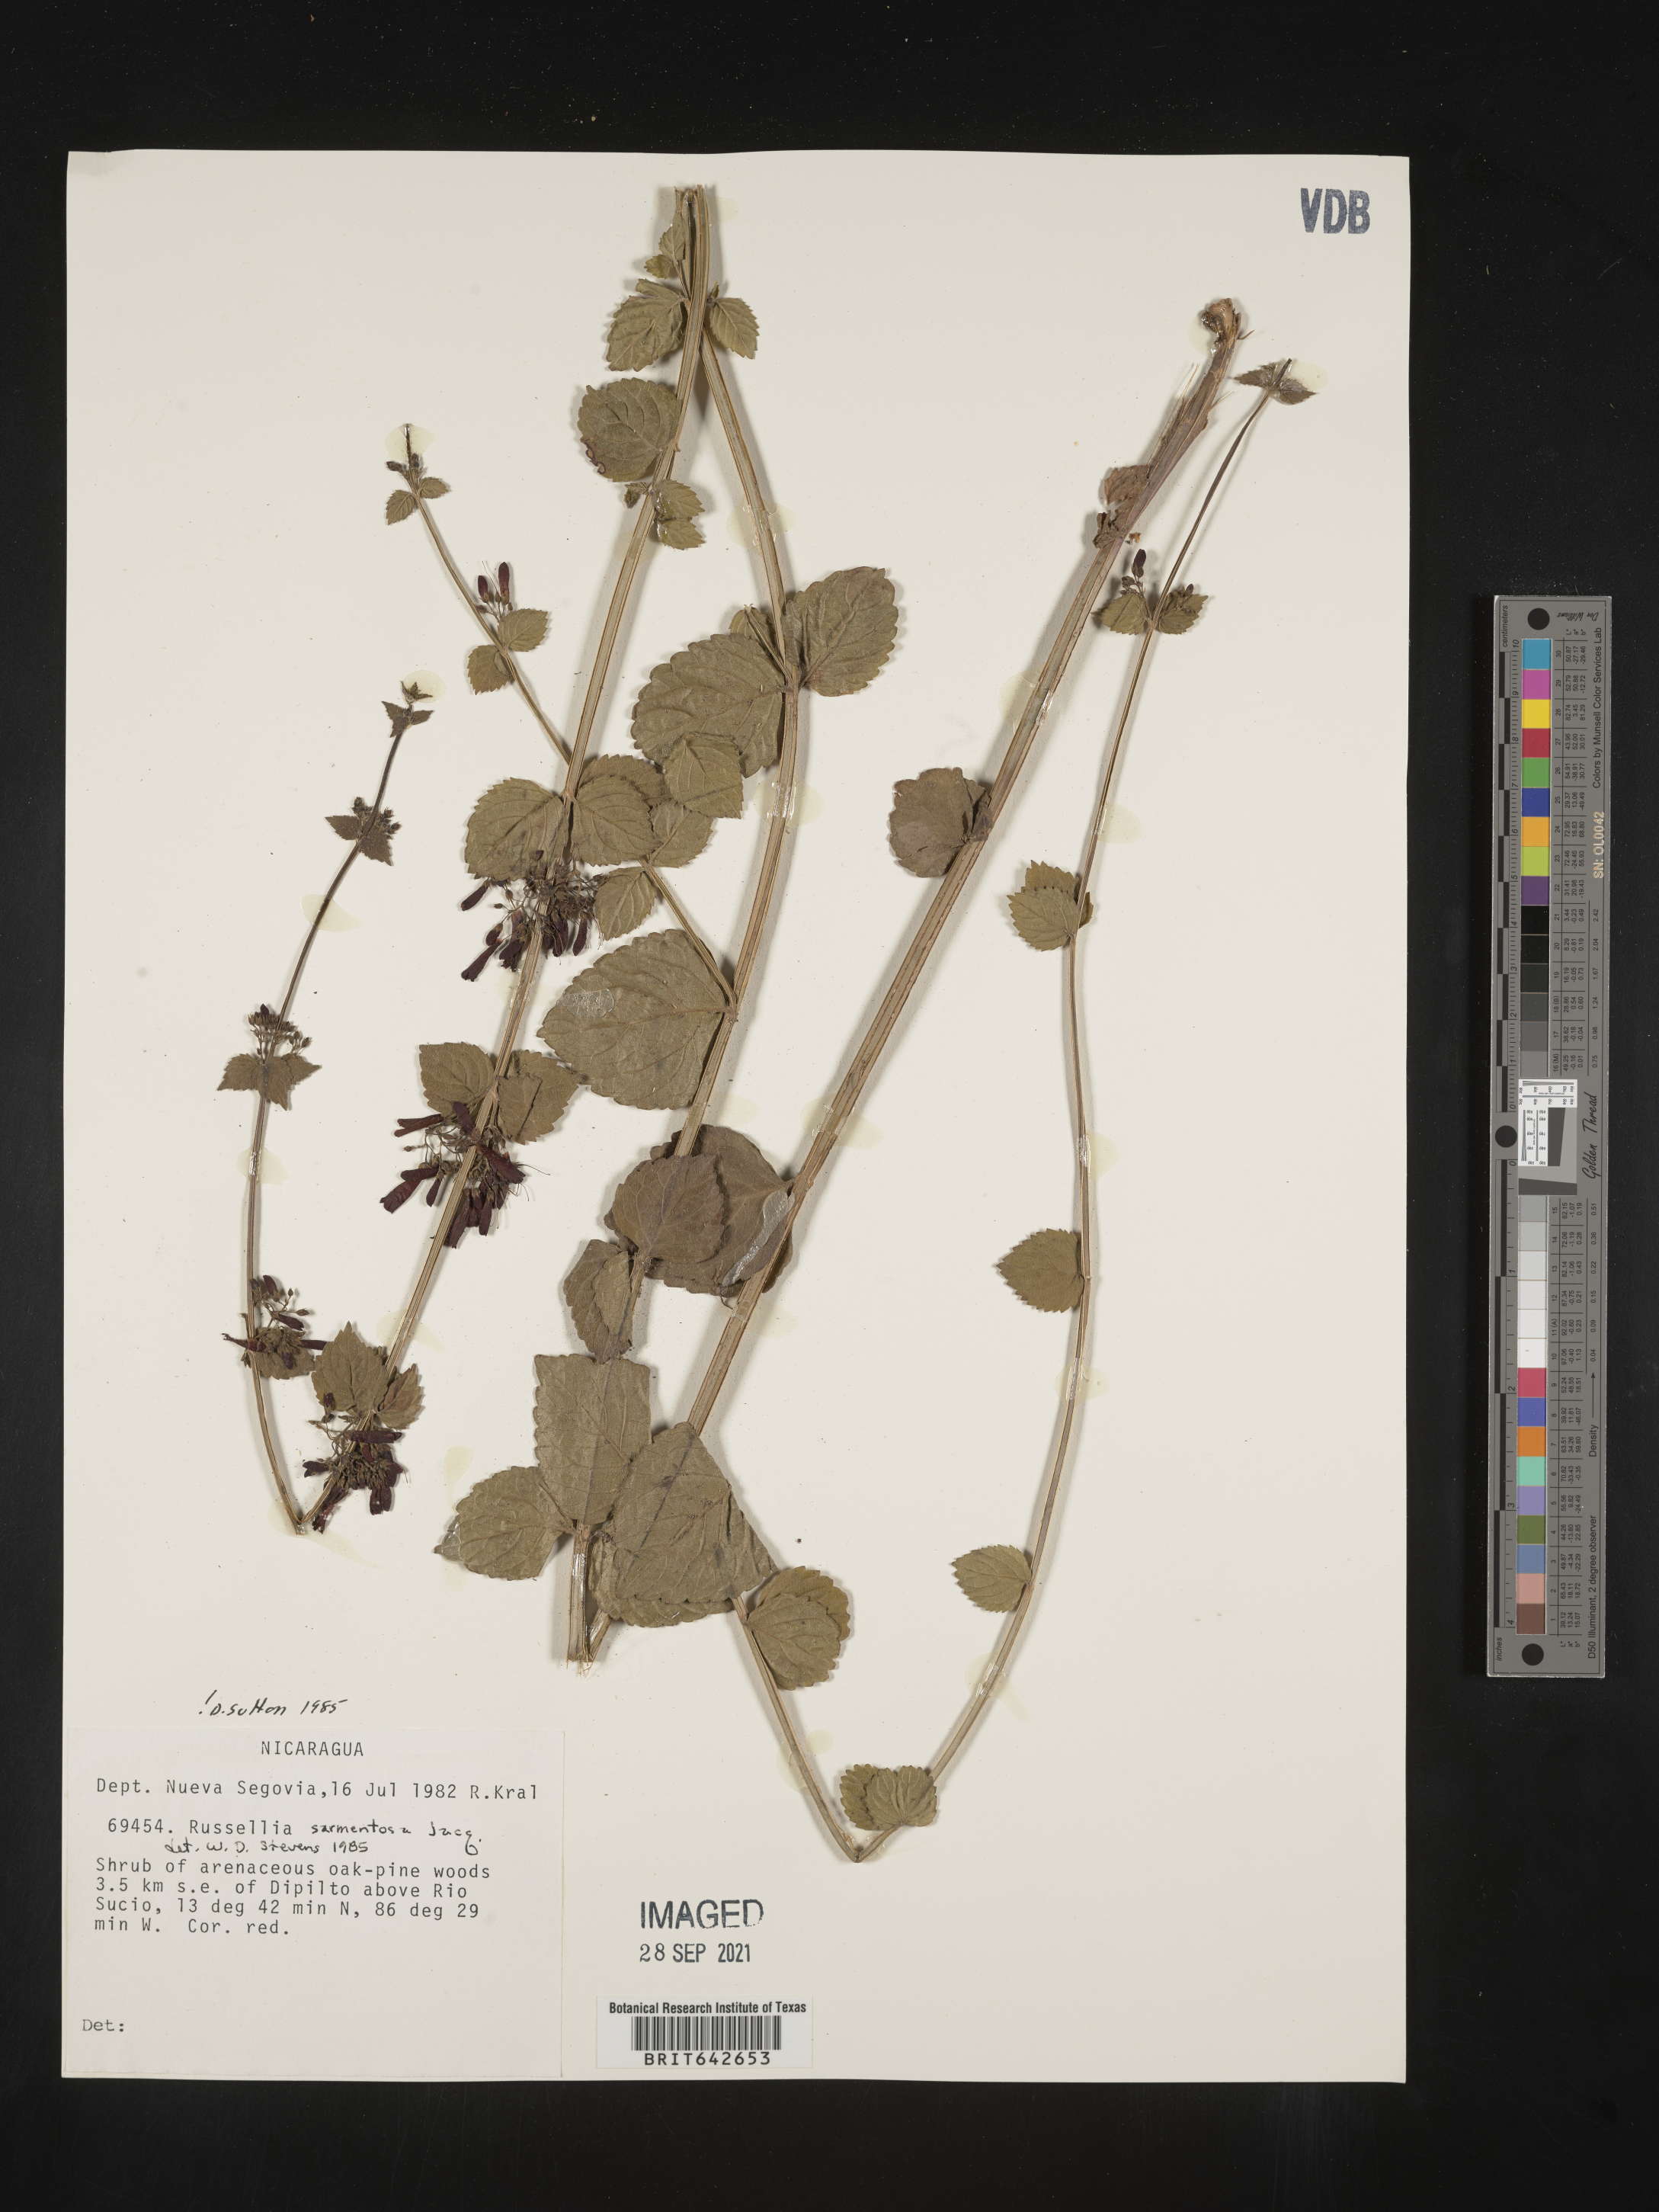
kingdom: Plantae
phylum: Tracheophyta
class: Magnoliopsida
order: Lamiales
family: Plantaginaceae
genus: Russelia
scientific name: Russelia
